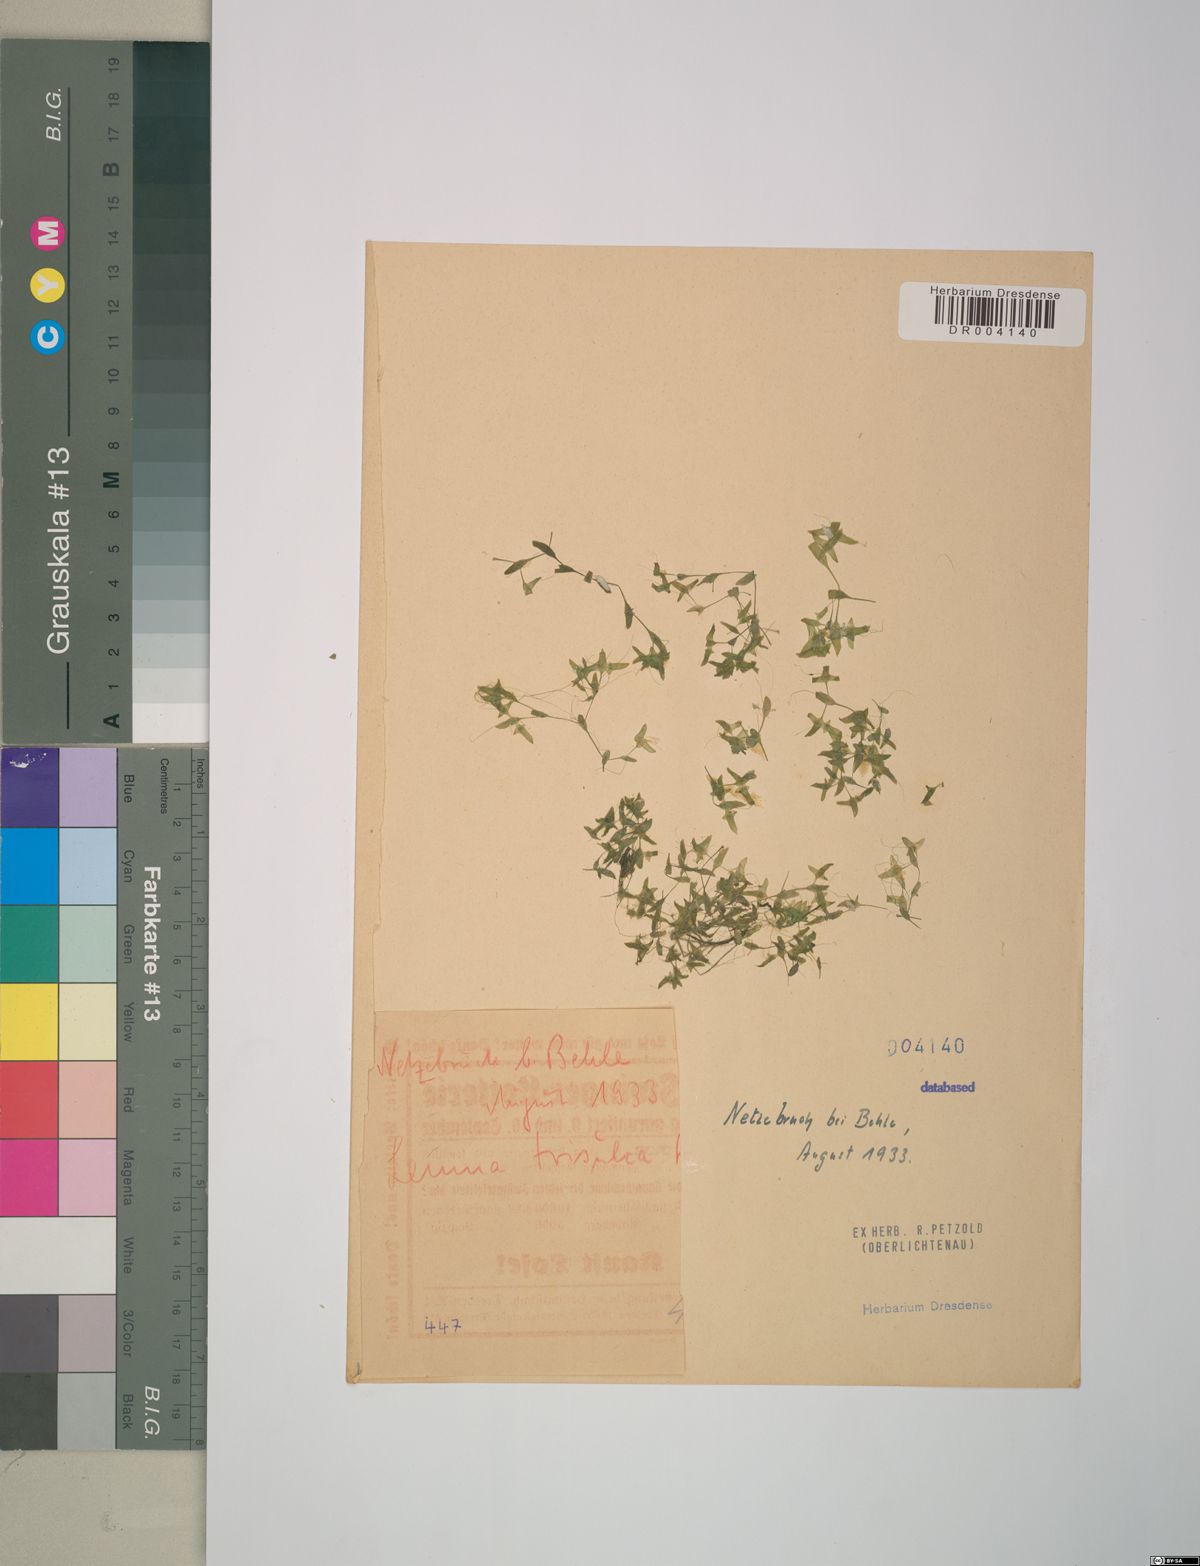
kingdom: Plantae
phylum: Tracheophyta
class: Liliopsida
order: Alismatales
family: Araceae
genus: Lemna
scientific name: Lemna trisulca
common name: Ivy-leaved duckweed
